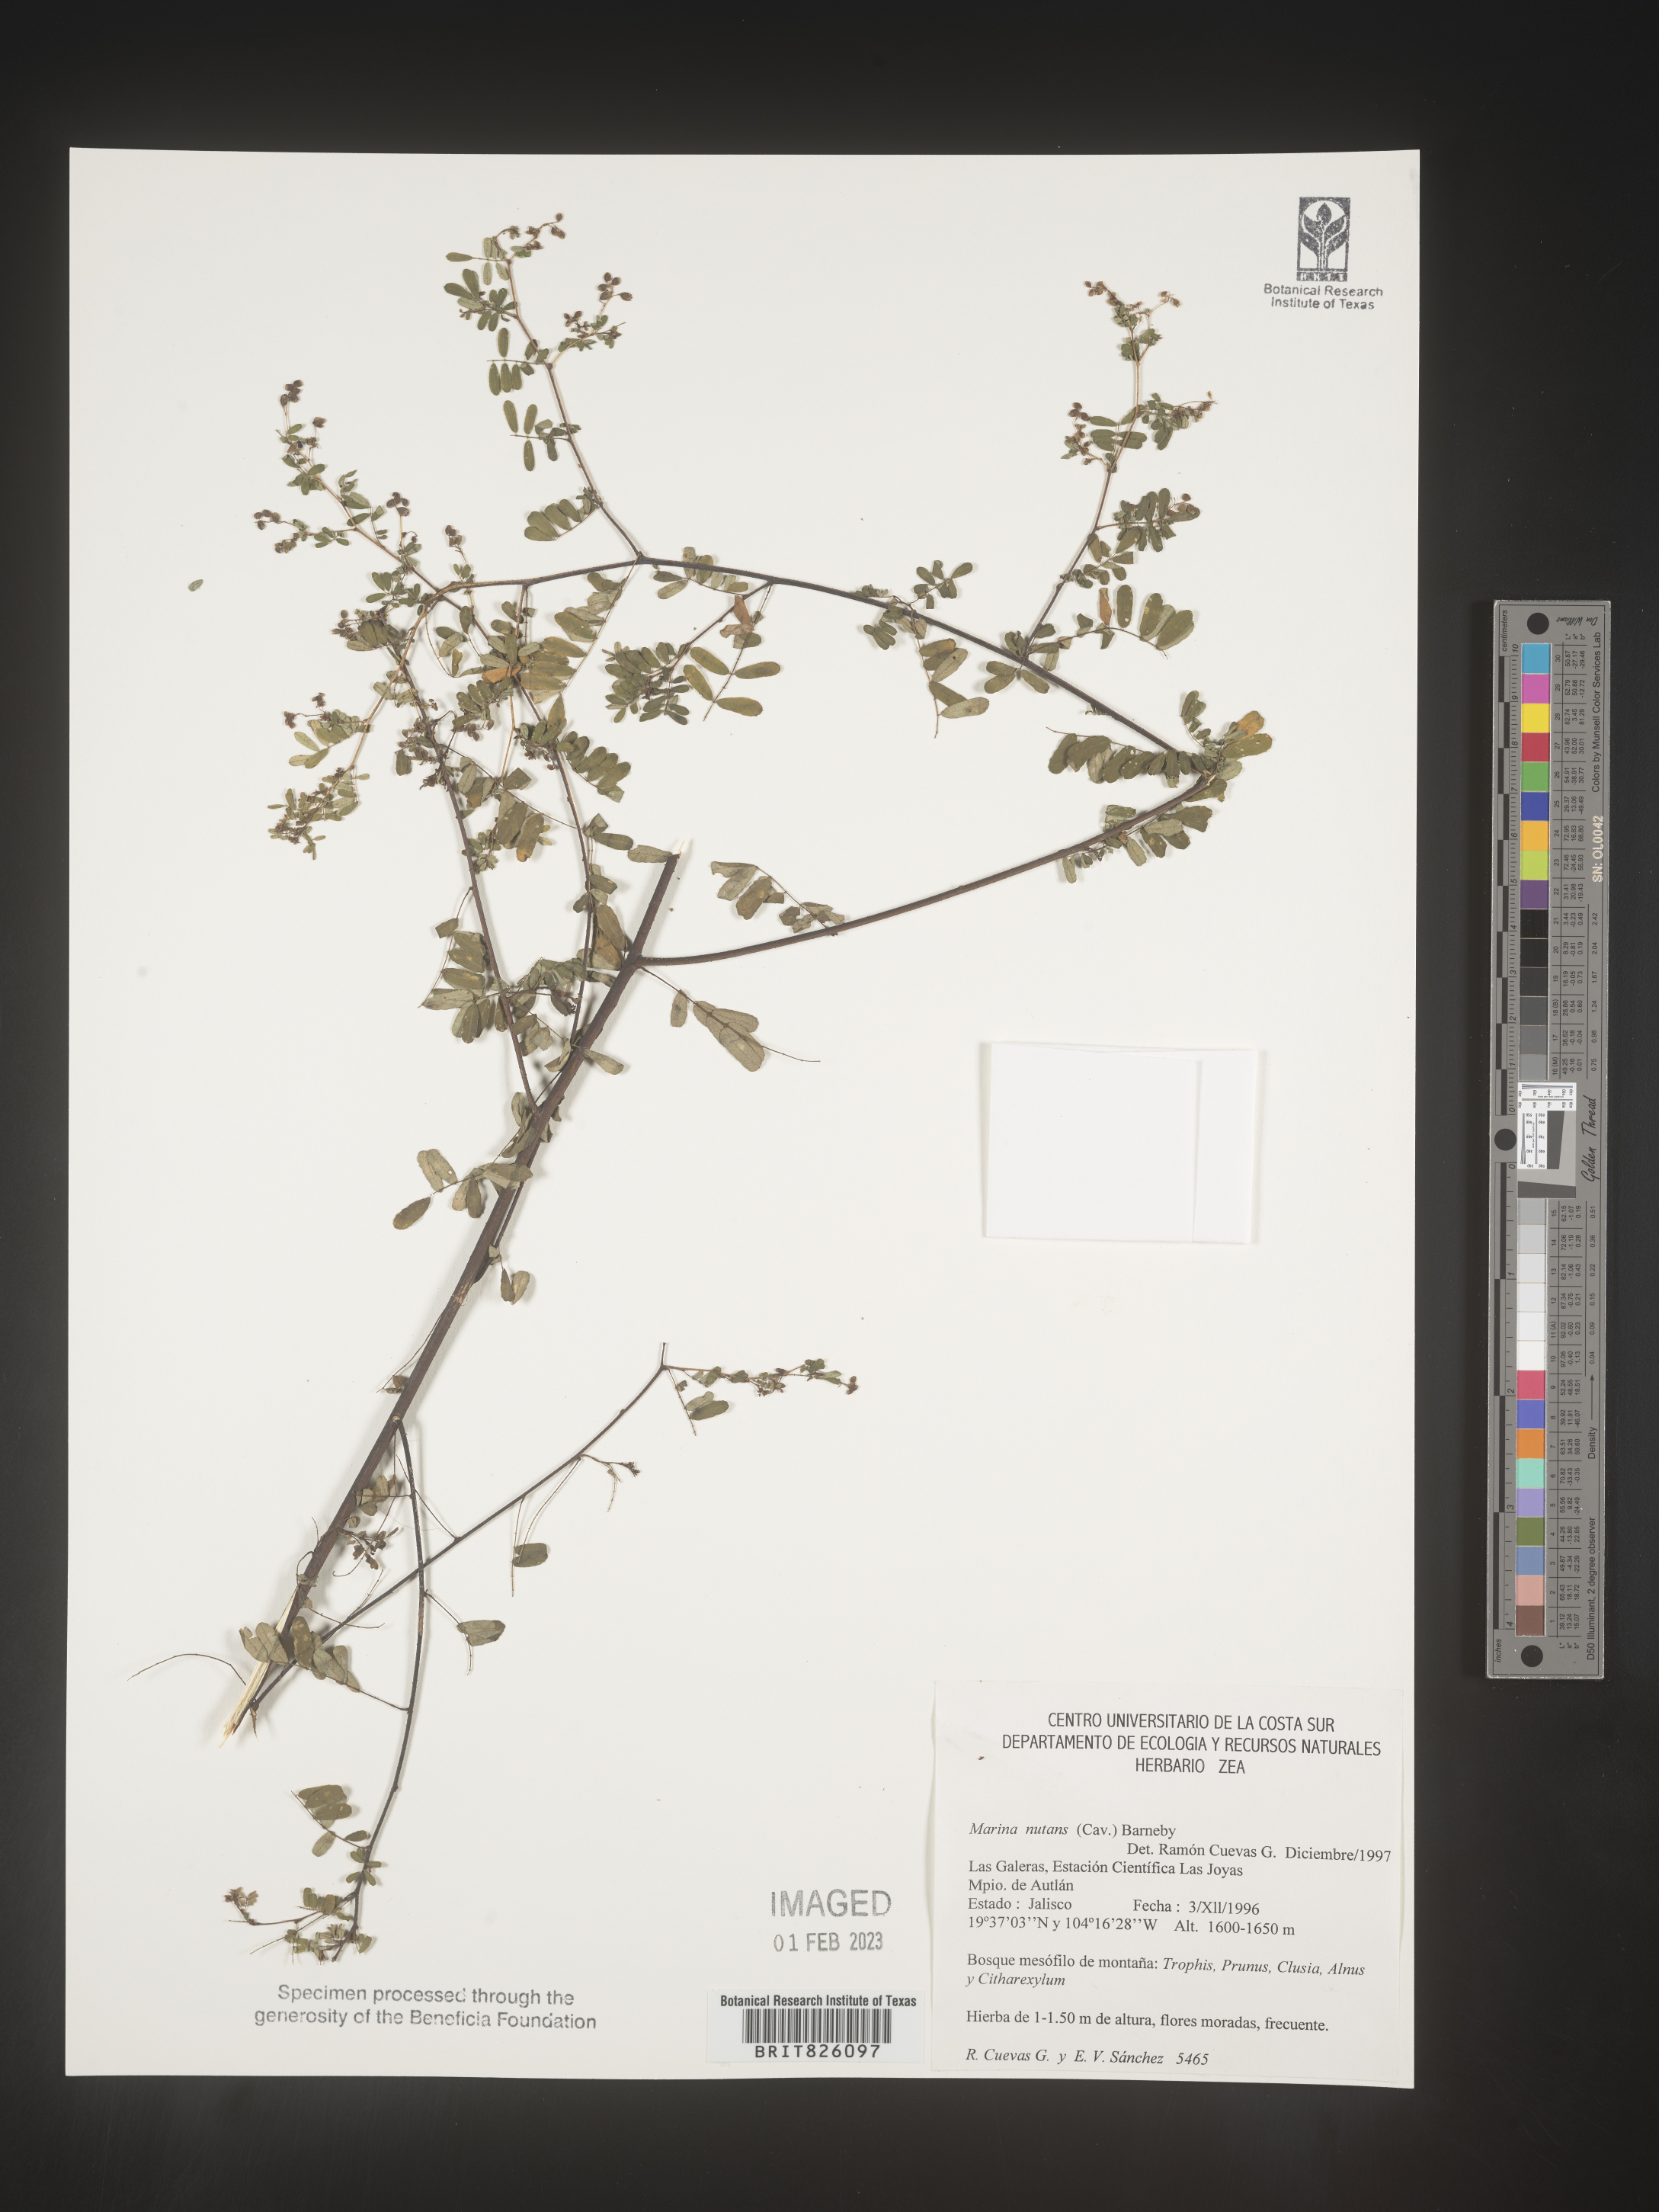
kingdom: Plantae
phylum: Tracheophyta
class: Magnoliopsida
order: Fabales
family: Fabaceae
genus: Marina
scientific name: Marina
